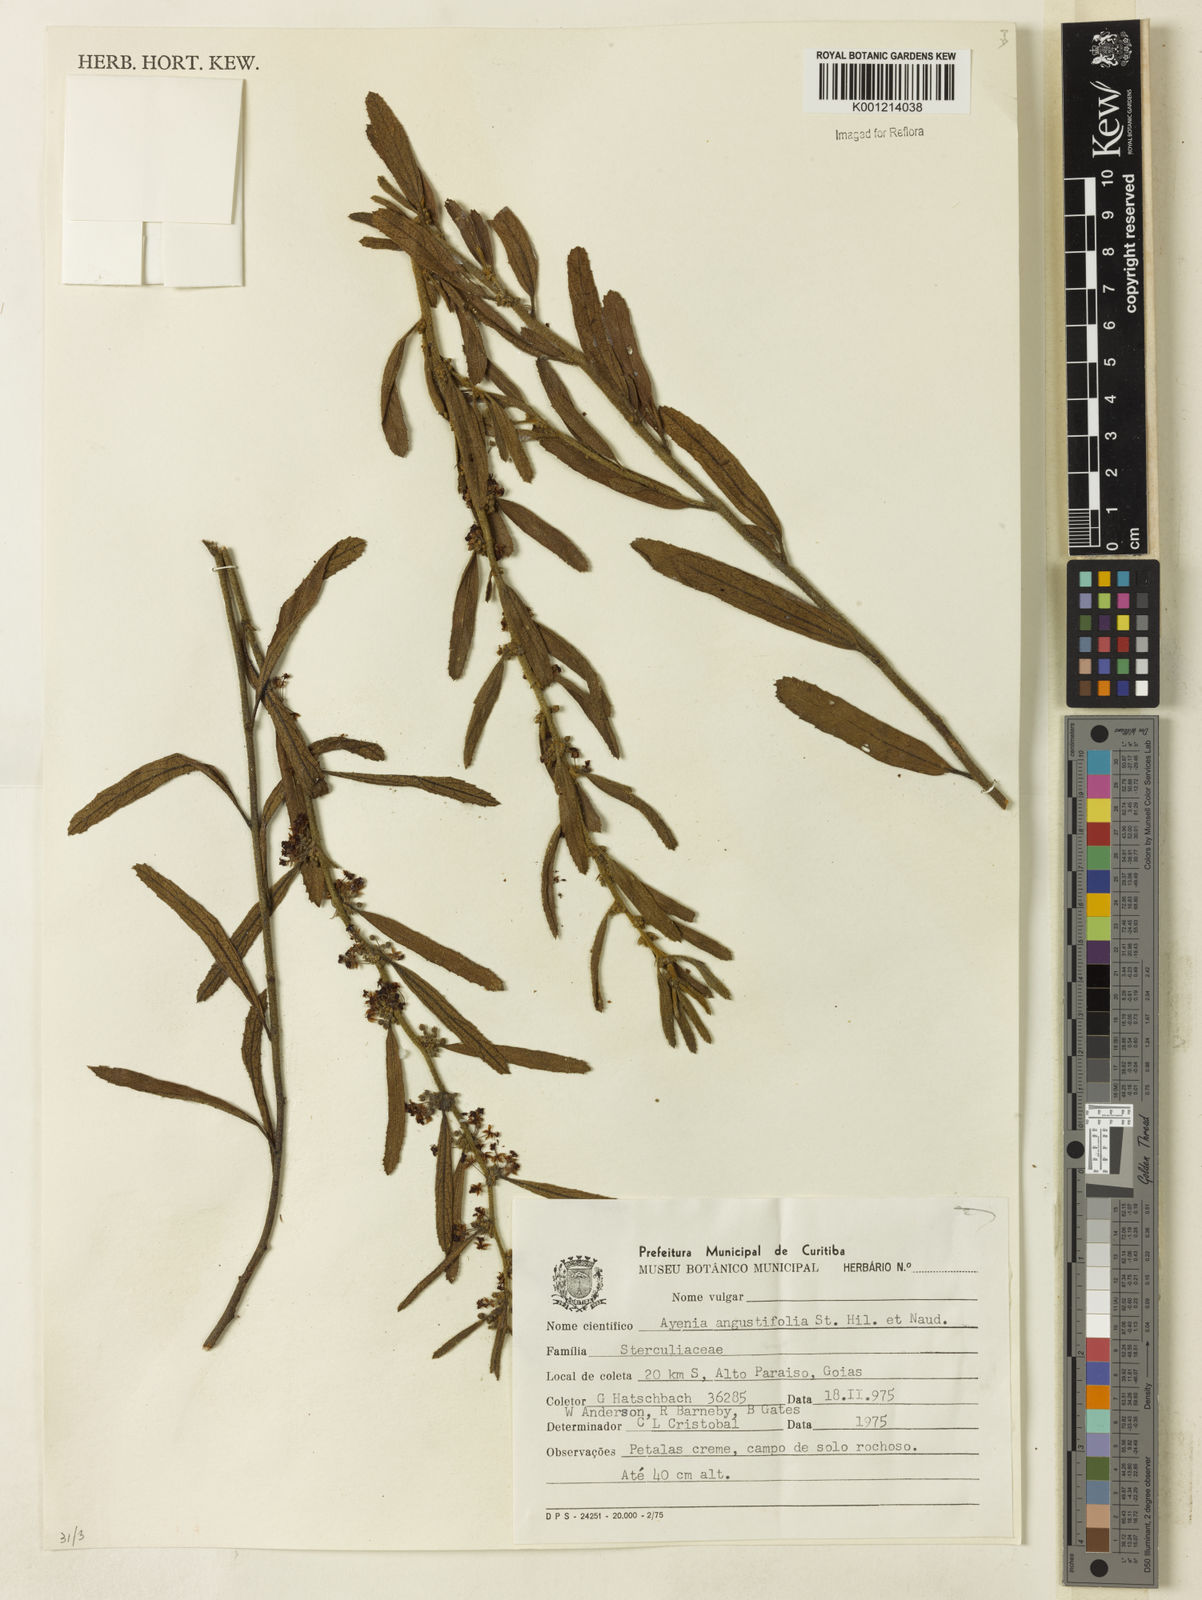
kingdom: Plantae
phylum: Tracheophyta
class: Magnoliopsida
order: Malvales
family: Malvaceae
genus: Ayenia
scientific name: Ayenia angustifolia
